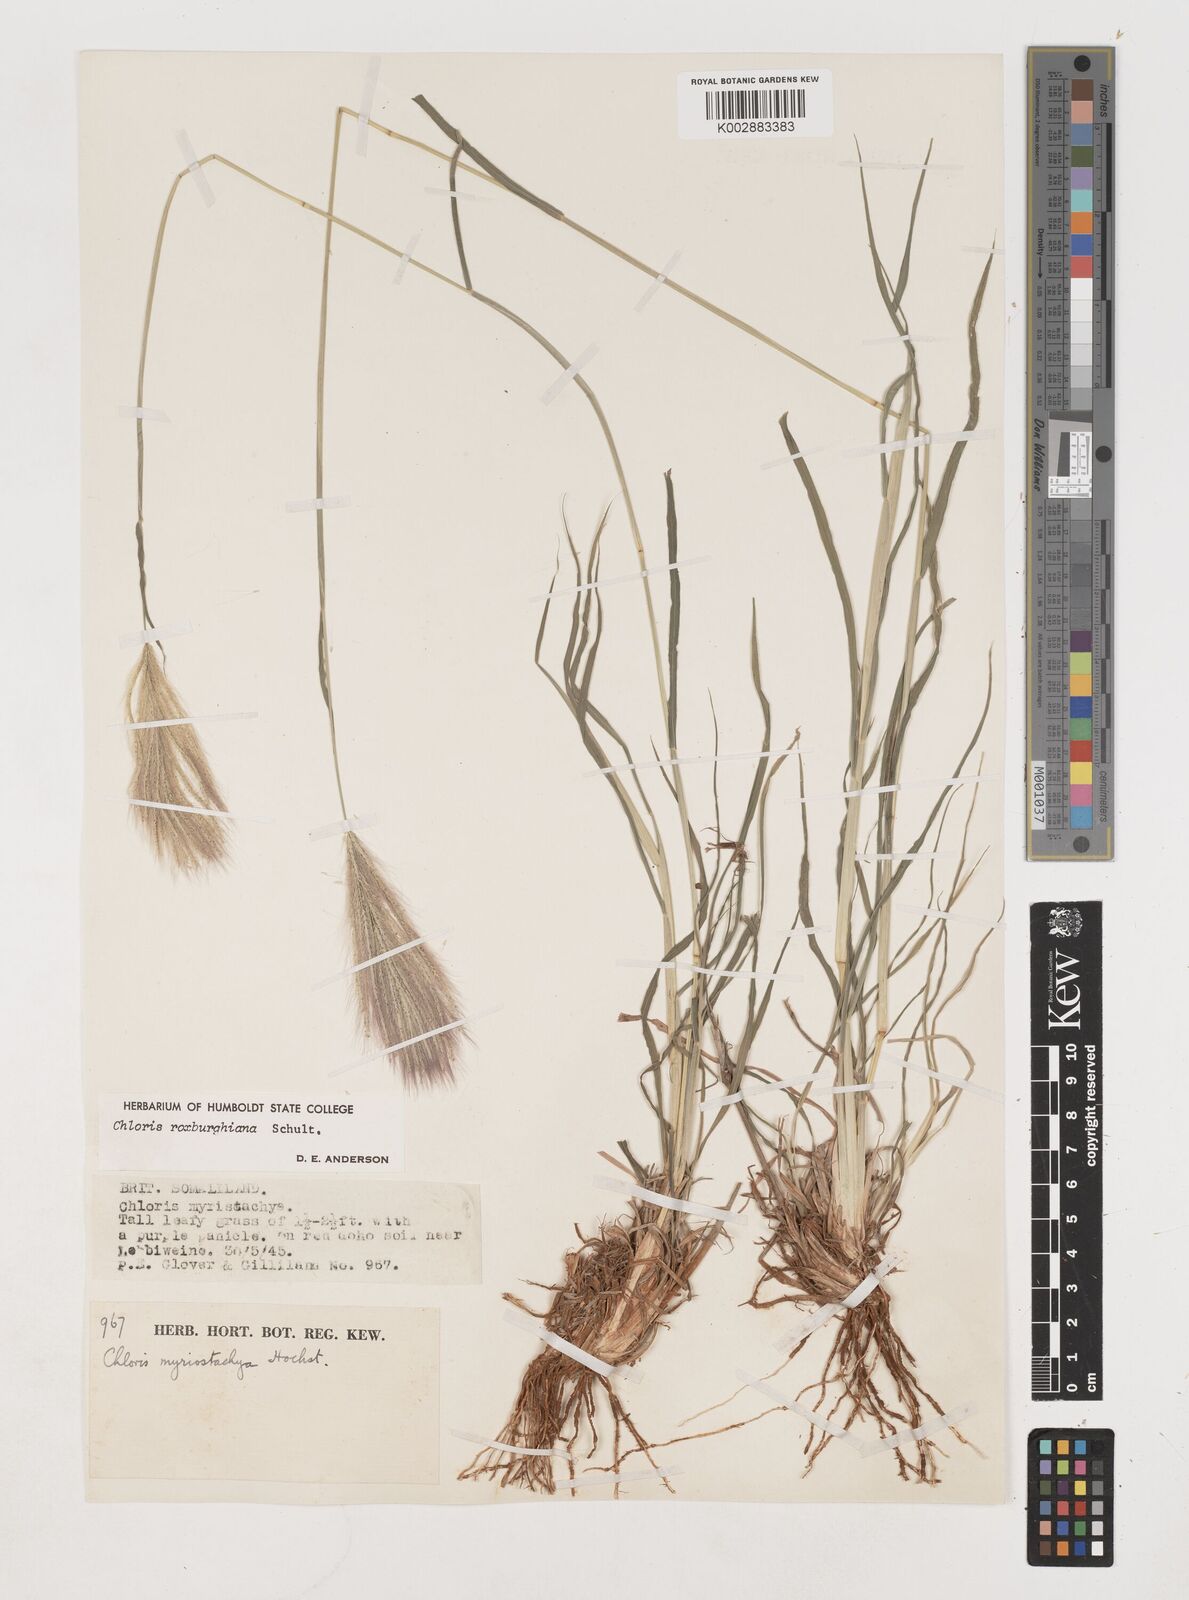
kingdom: Plantae
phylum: Tracheophyta
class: Liliopsida
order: Poales
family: Poaceae
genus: Tetrapogon
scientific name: Tetrapogon roxburghiana
